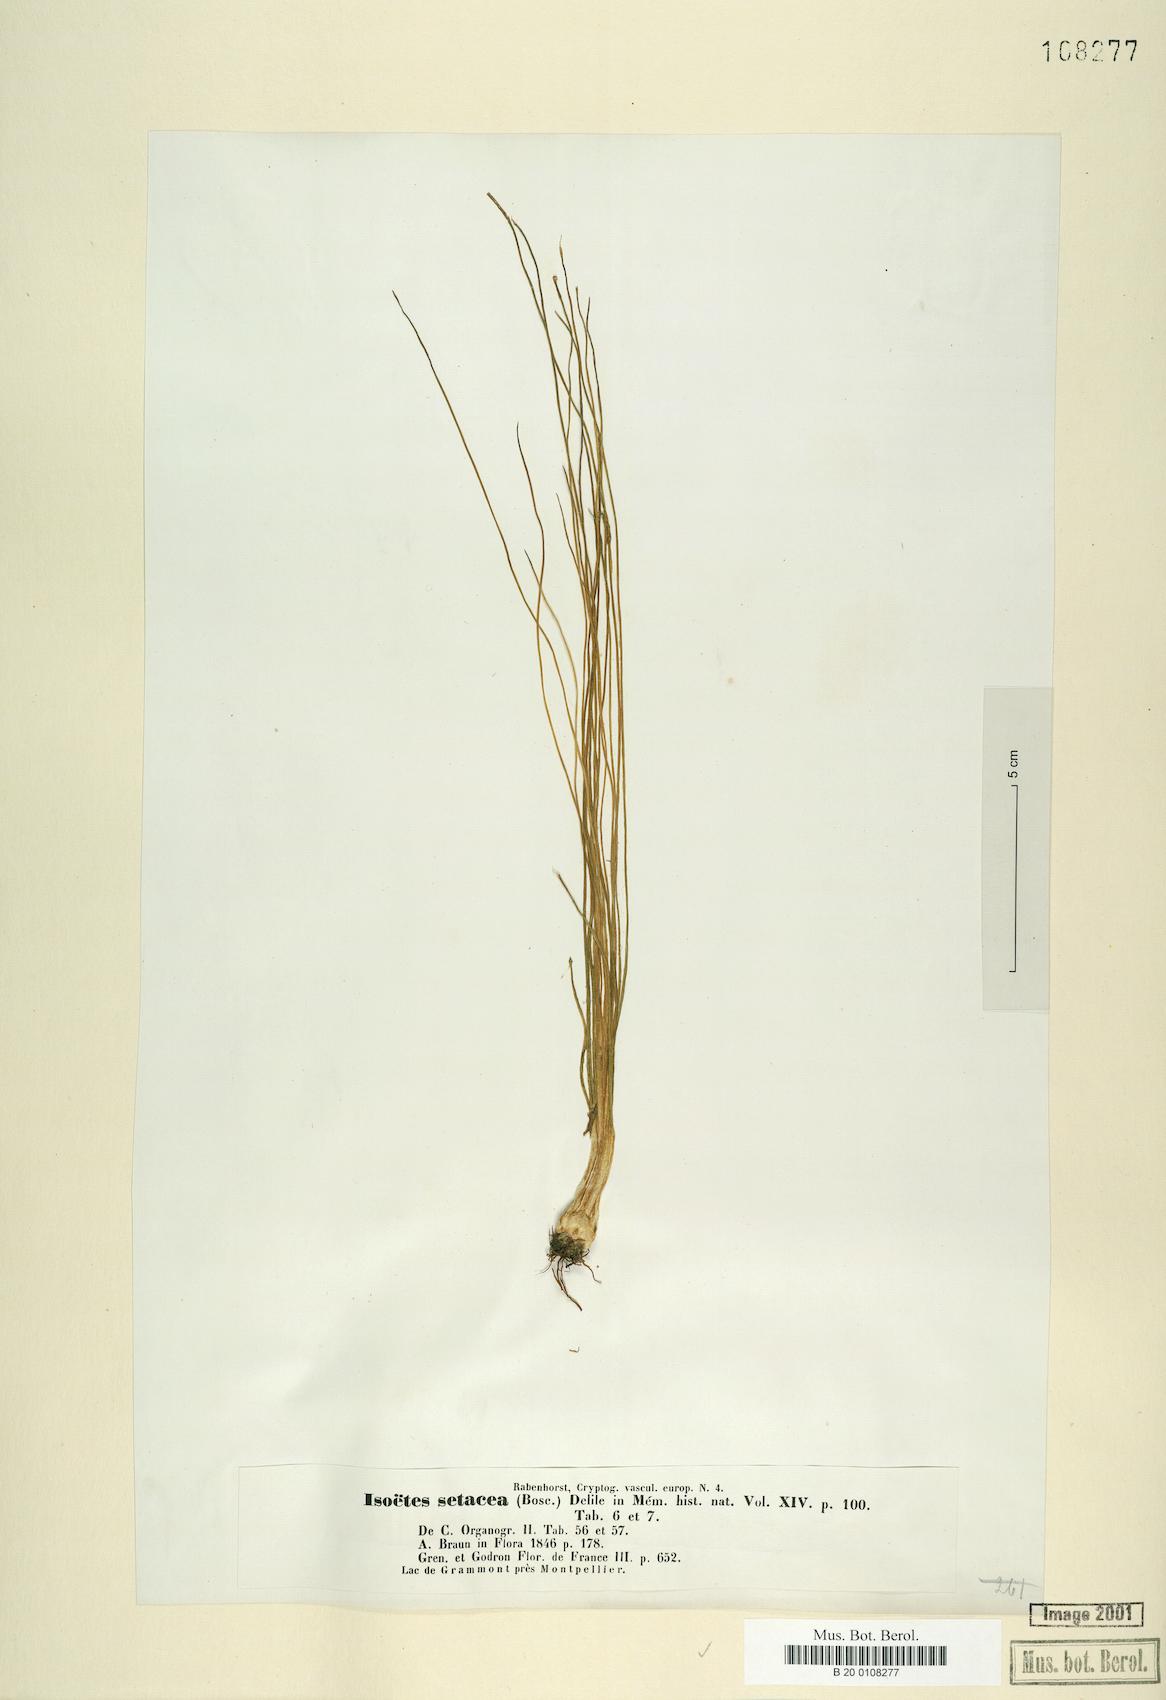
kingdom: Plantae
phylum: Tracheophyta
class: Lycopodiopsida
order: Isoetales
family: Isoetaceae
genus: Isoetes
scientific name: Isoetes lacustris
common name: Common quillwort
